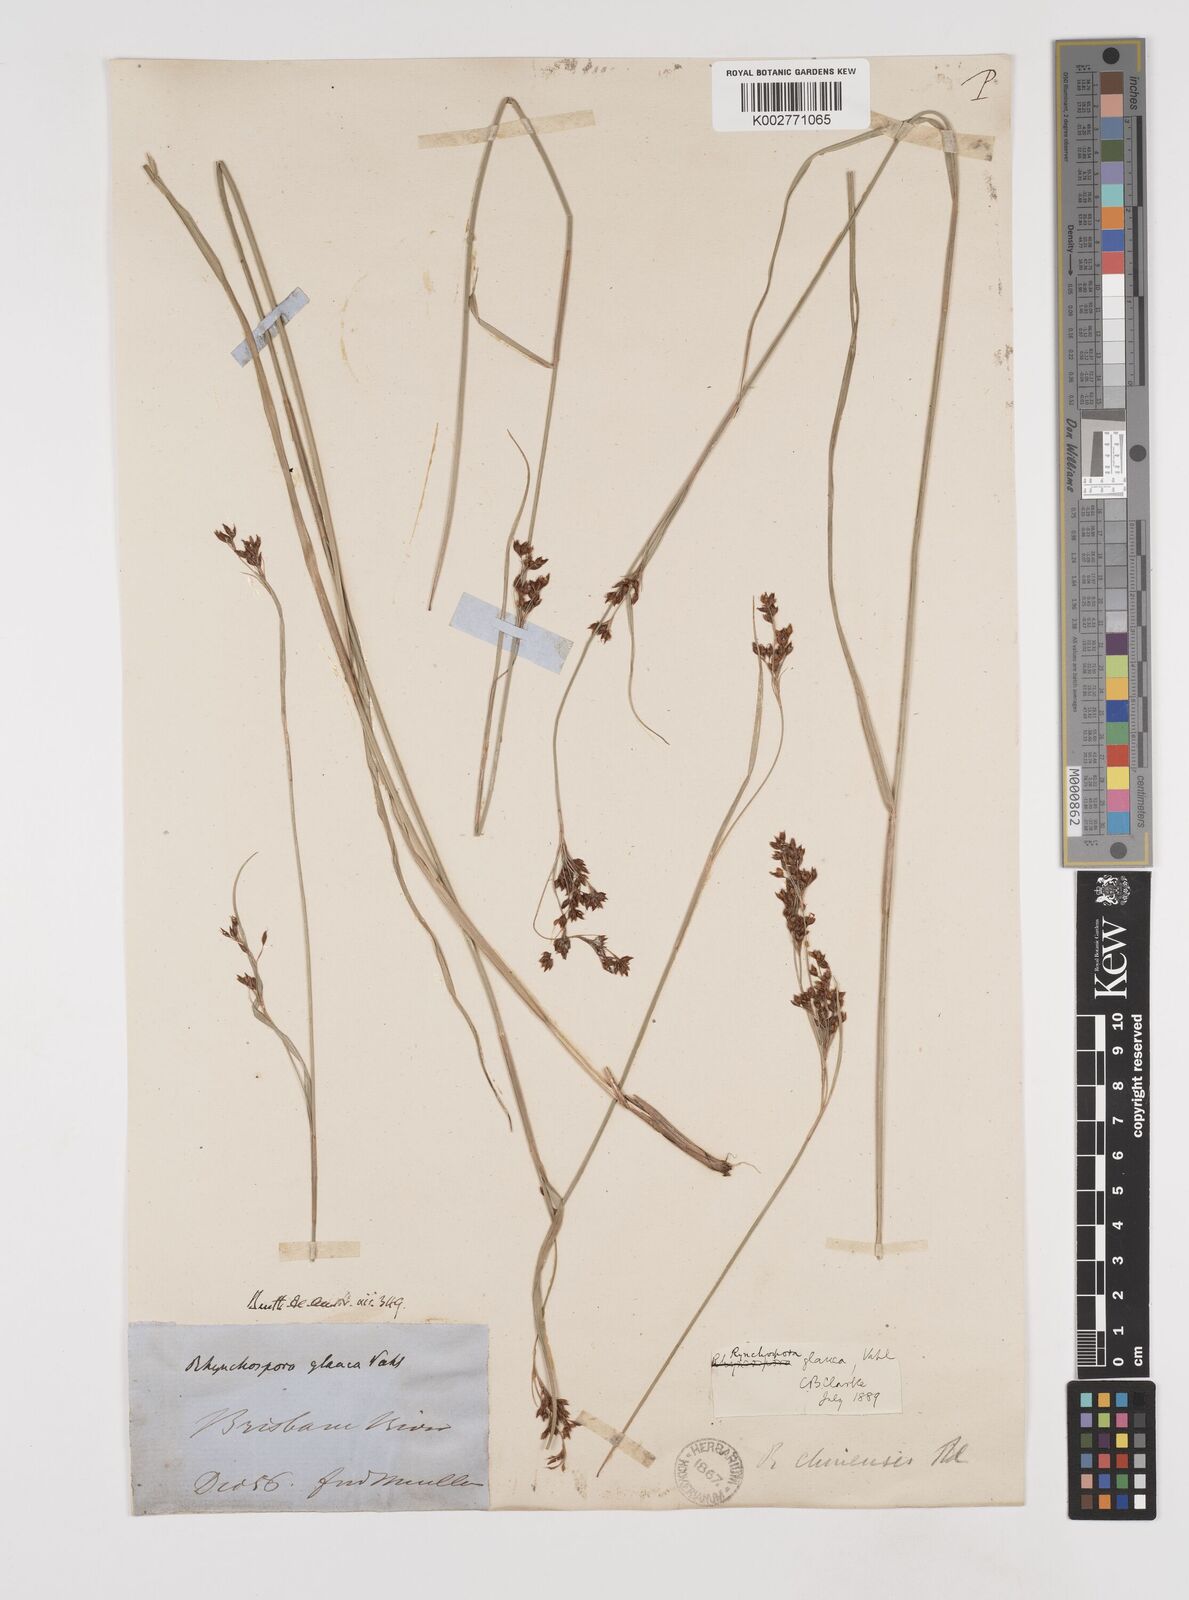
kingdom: Plantae
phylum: Tracheophyta
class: Liliopsida
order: Poales
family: Cyperaceae
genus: Rhynchospora
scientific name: Rhynchospora rugosa
